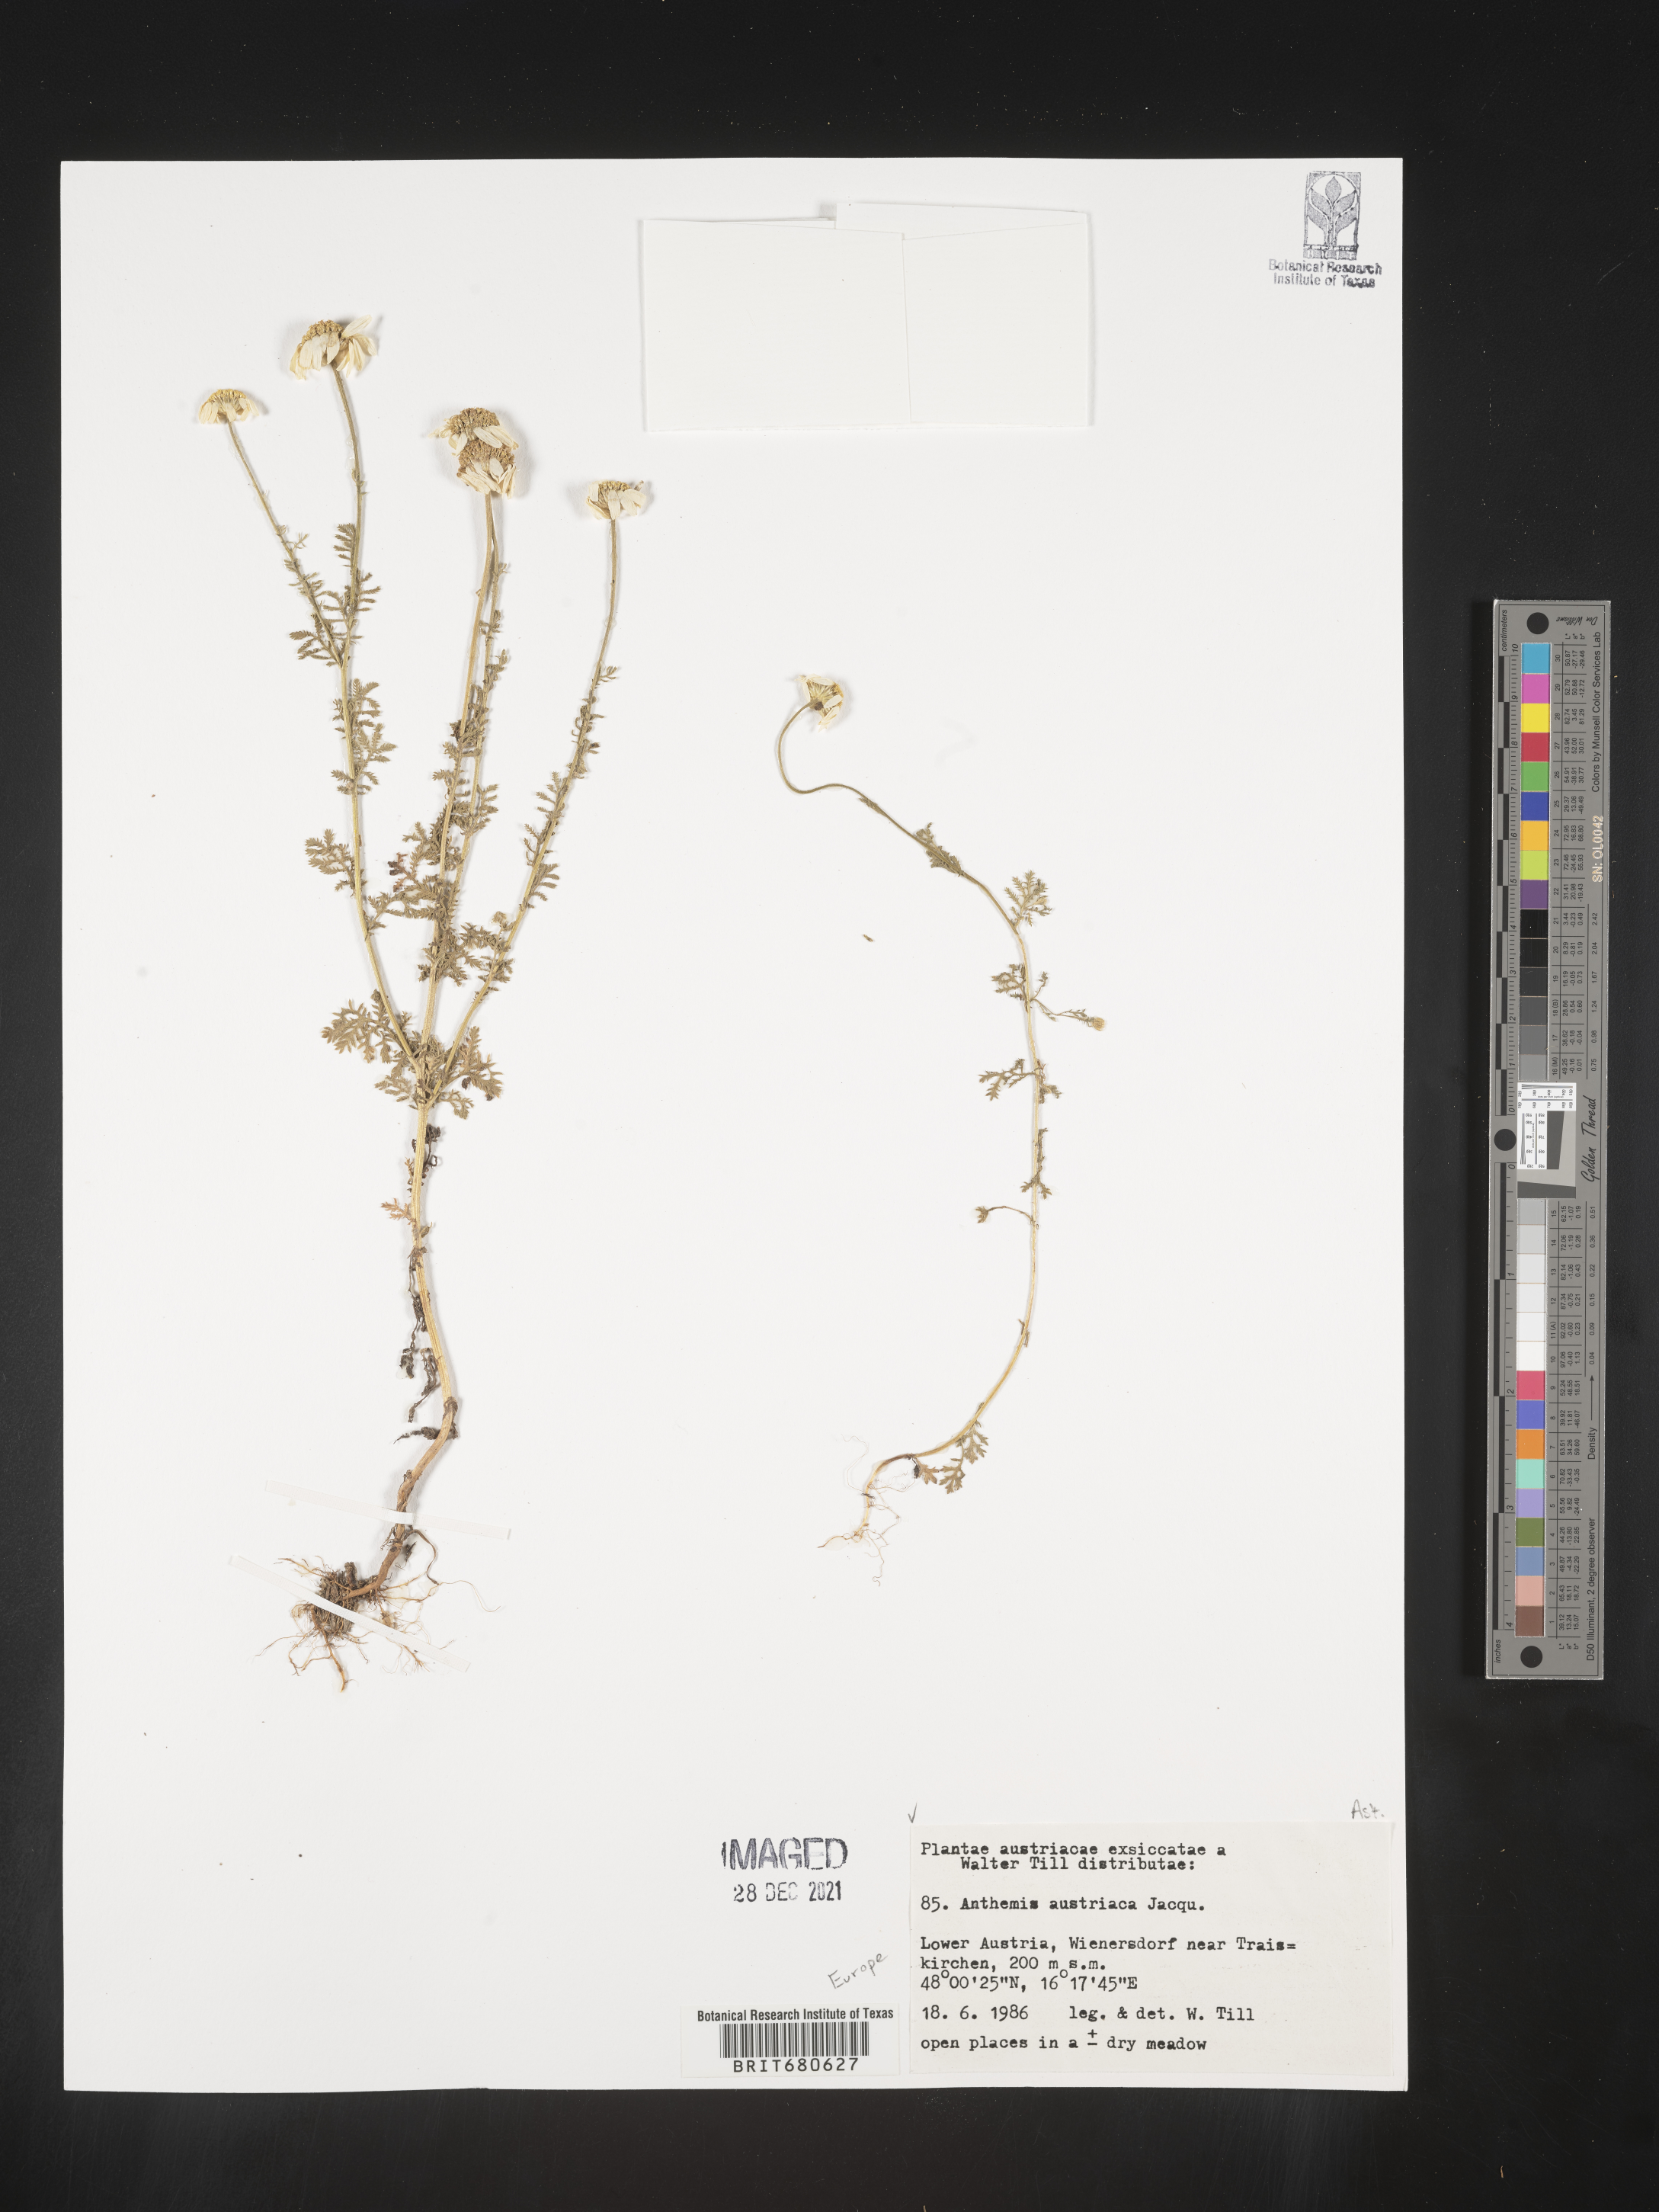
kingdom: Plantae
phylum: Tracheophyta
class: Magnoliopsida
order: Asterales
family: Asteraceae
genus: Anthemis
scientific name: Anthemis
